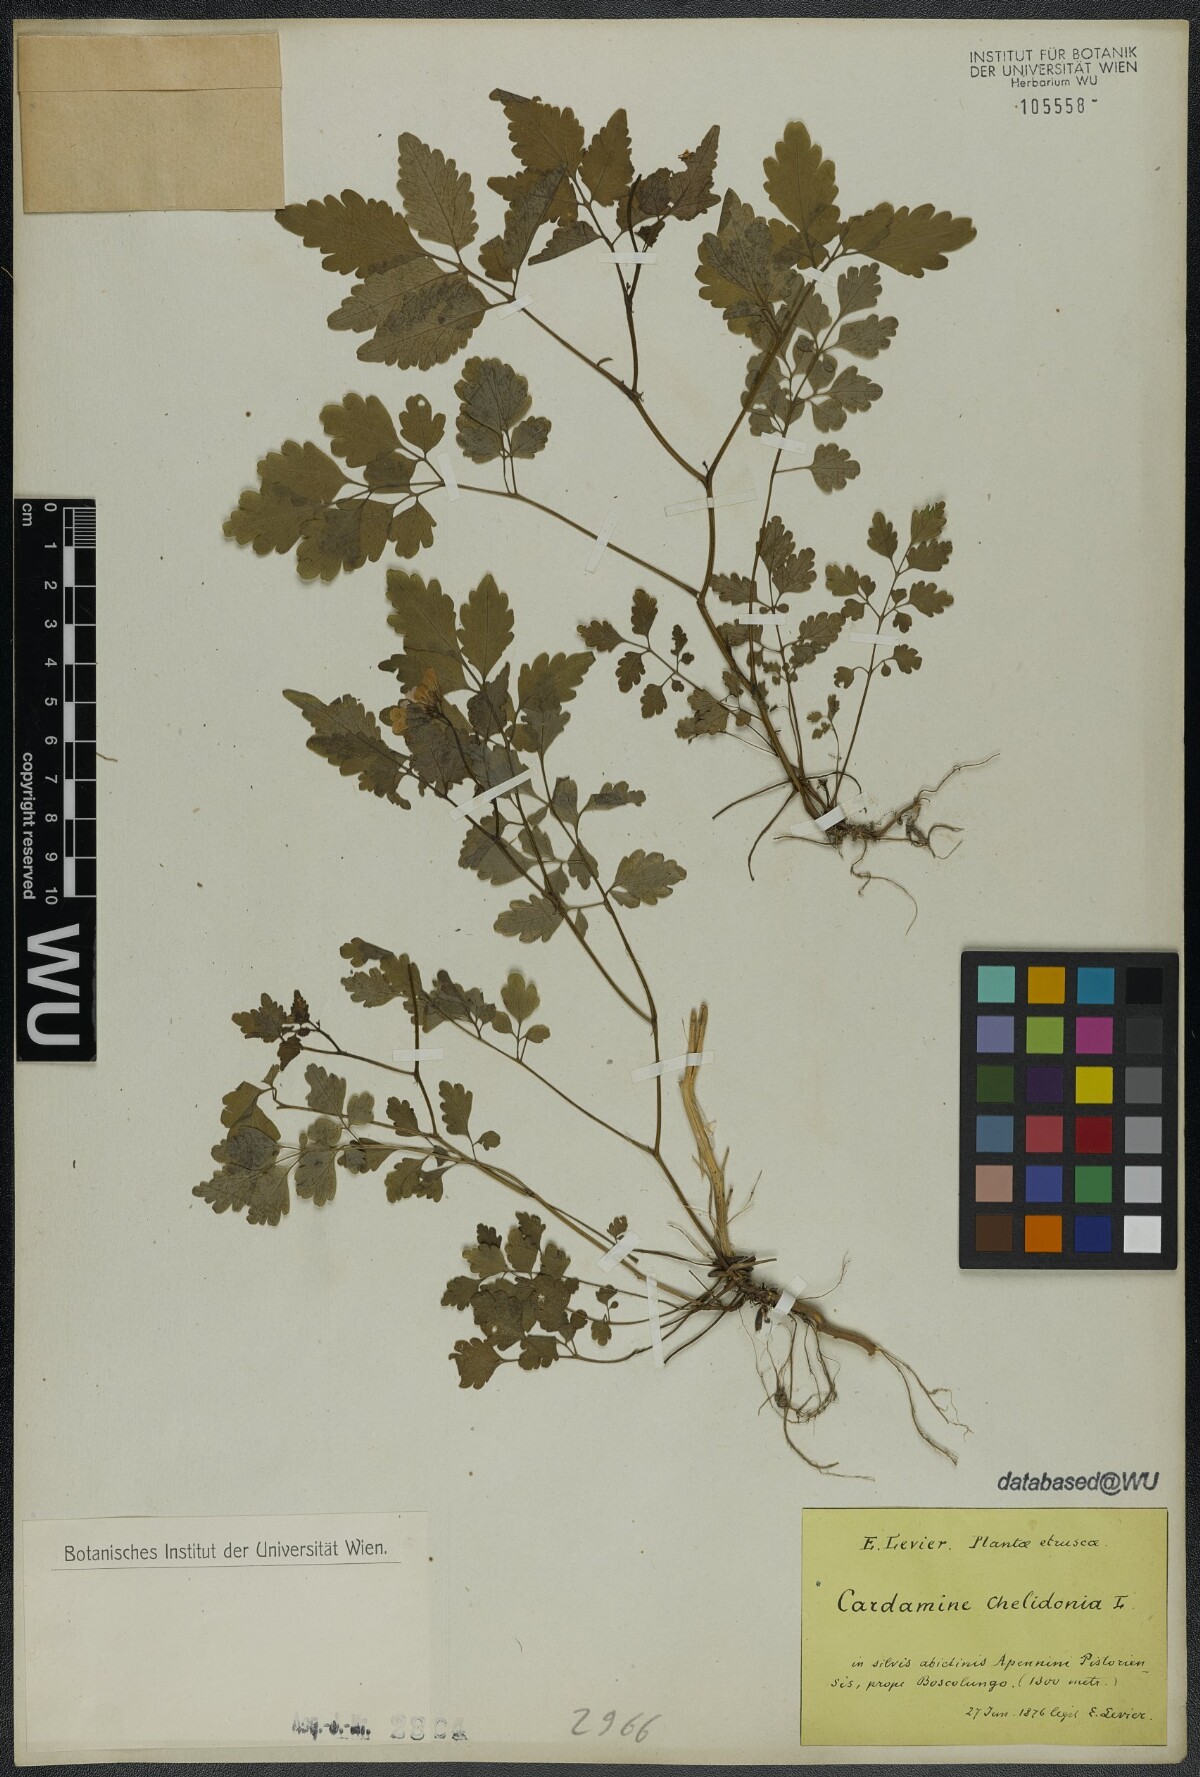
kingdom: Plantae
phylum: Tracheophyta
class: Magnoliopsida
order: Brassicales
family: Brassicaceae
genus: Cardamine
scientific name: Cardamine chelidonia
